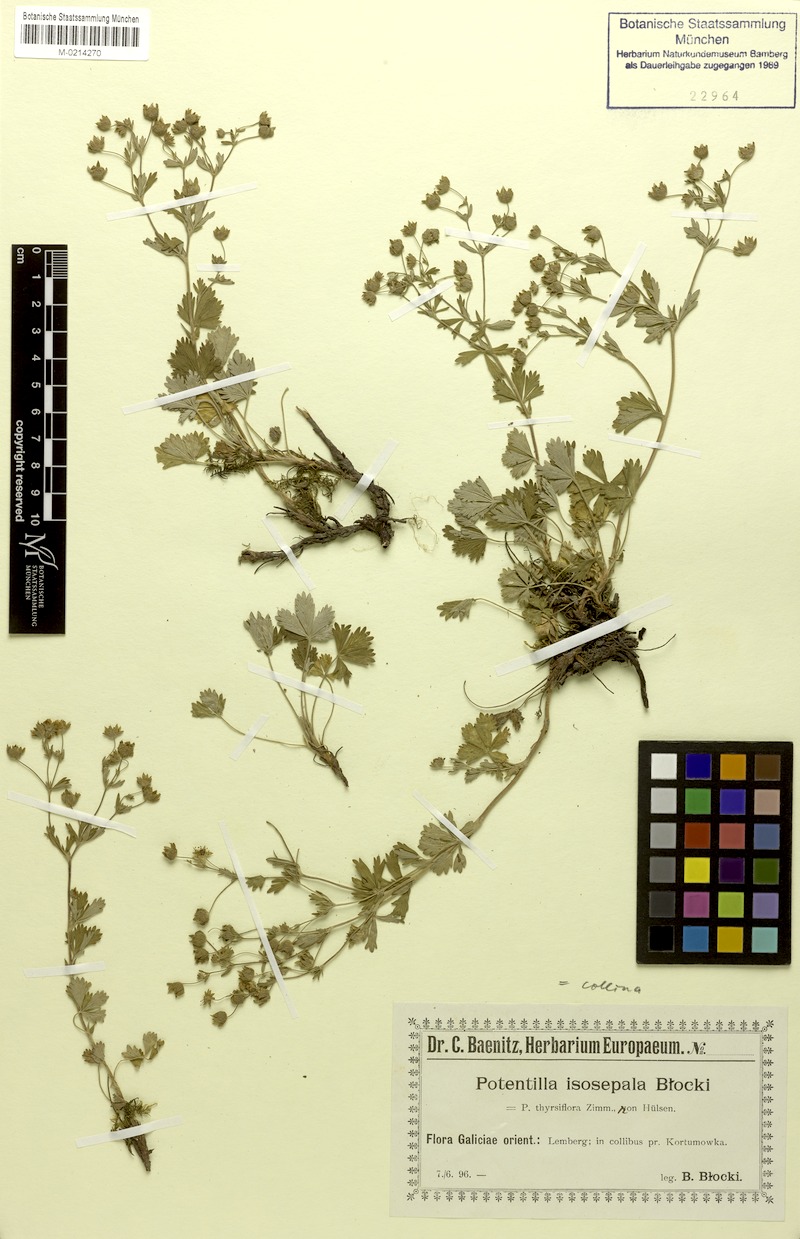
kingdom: Plantae
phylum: Tracheophyta
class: Magnoliopsida
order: Rosales
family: Rosaceae
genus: Potentilla
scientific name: Potentilla collina
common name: Palmleaf cinquefoil
